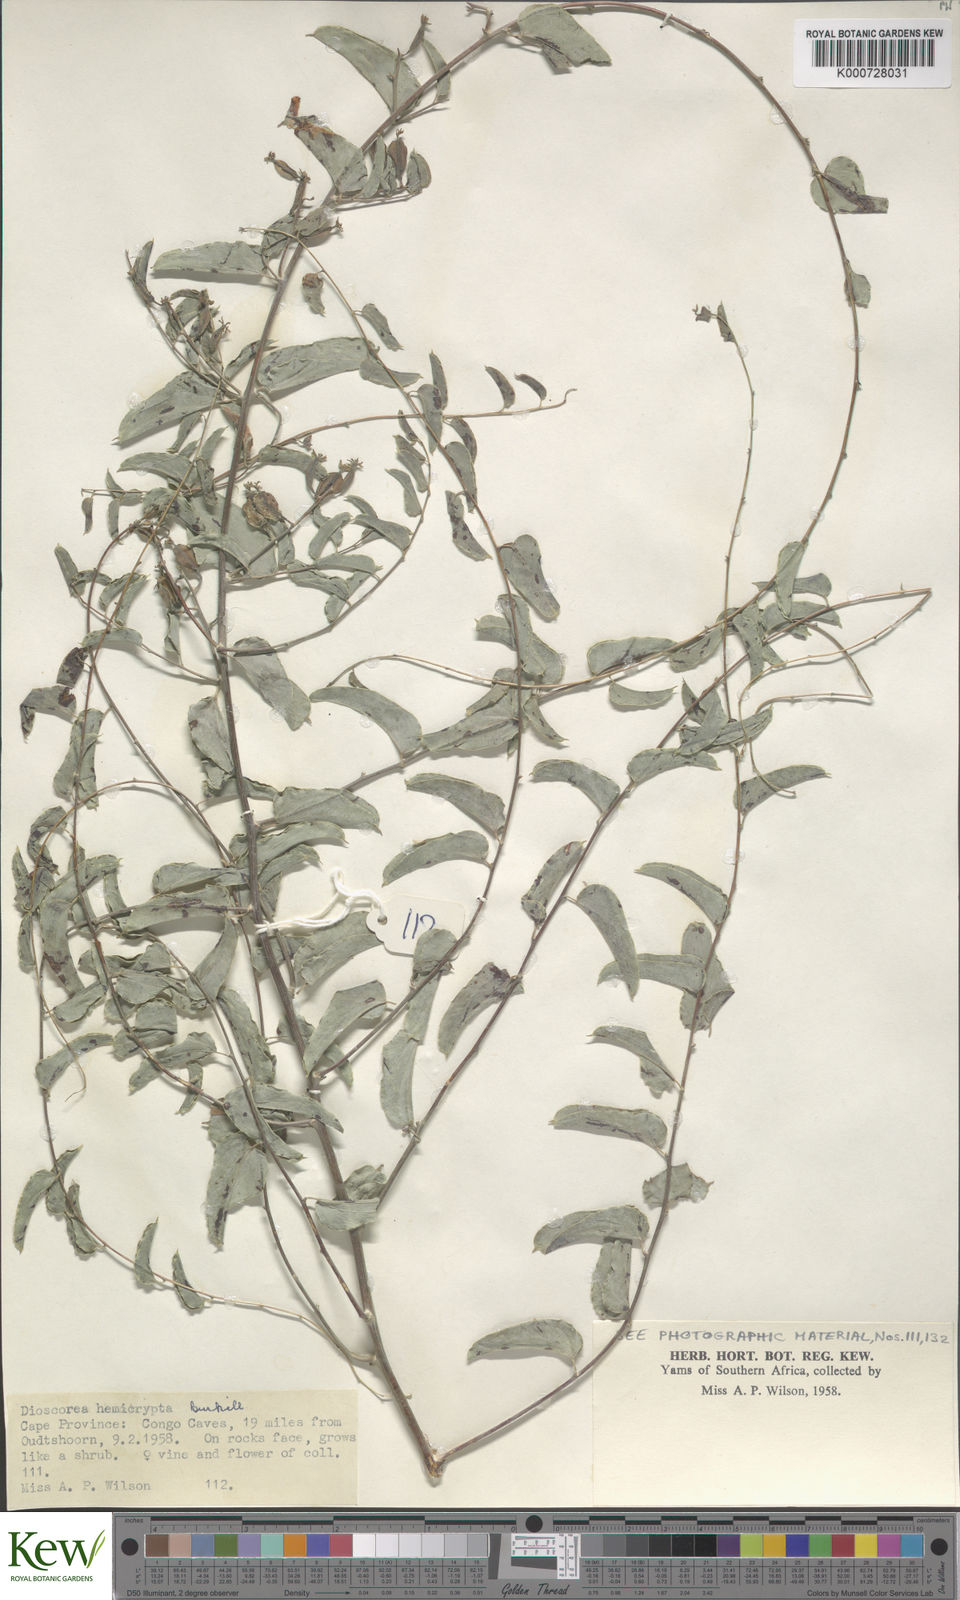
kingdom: Plantae
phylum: Tracheophyta
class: Liliopsida
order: Dioscoreales
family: Dioscoreaceae
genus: Dioscorea
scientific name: Dioscorea hemicrypta
